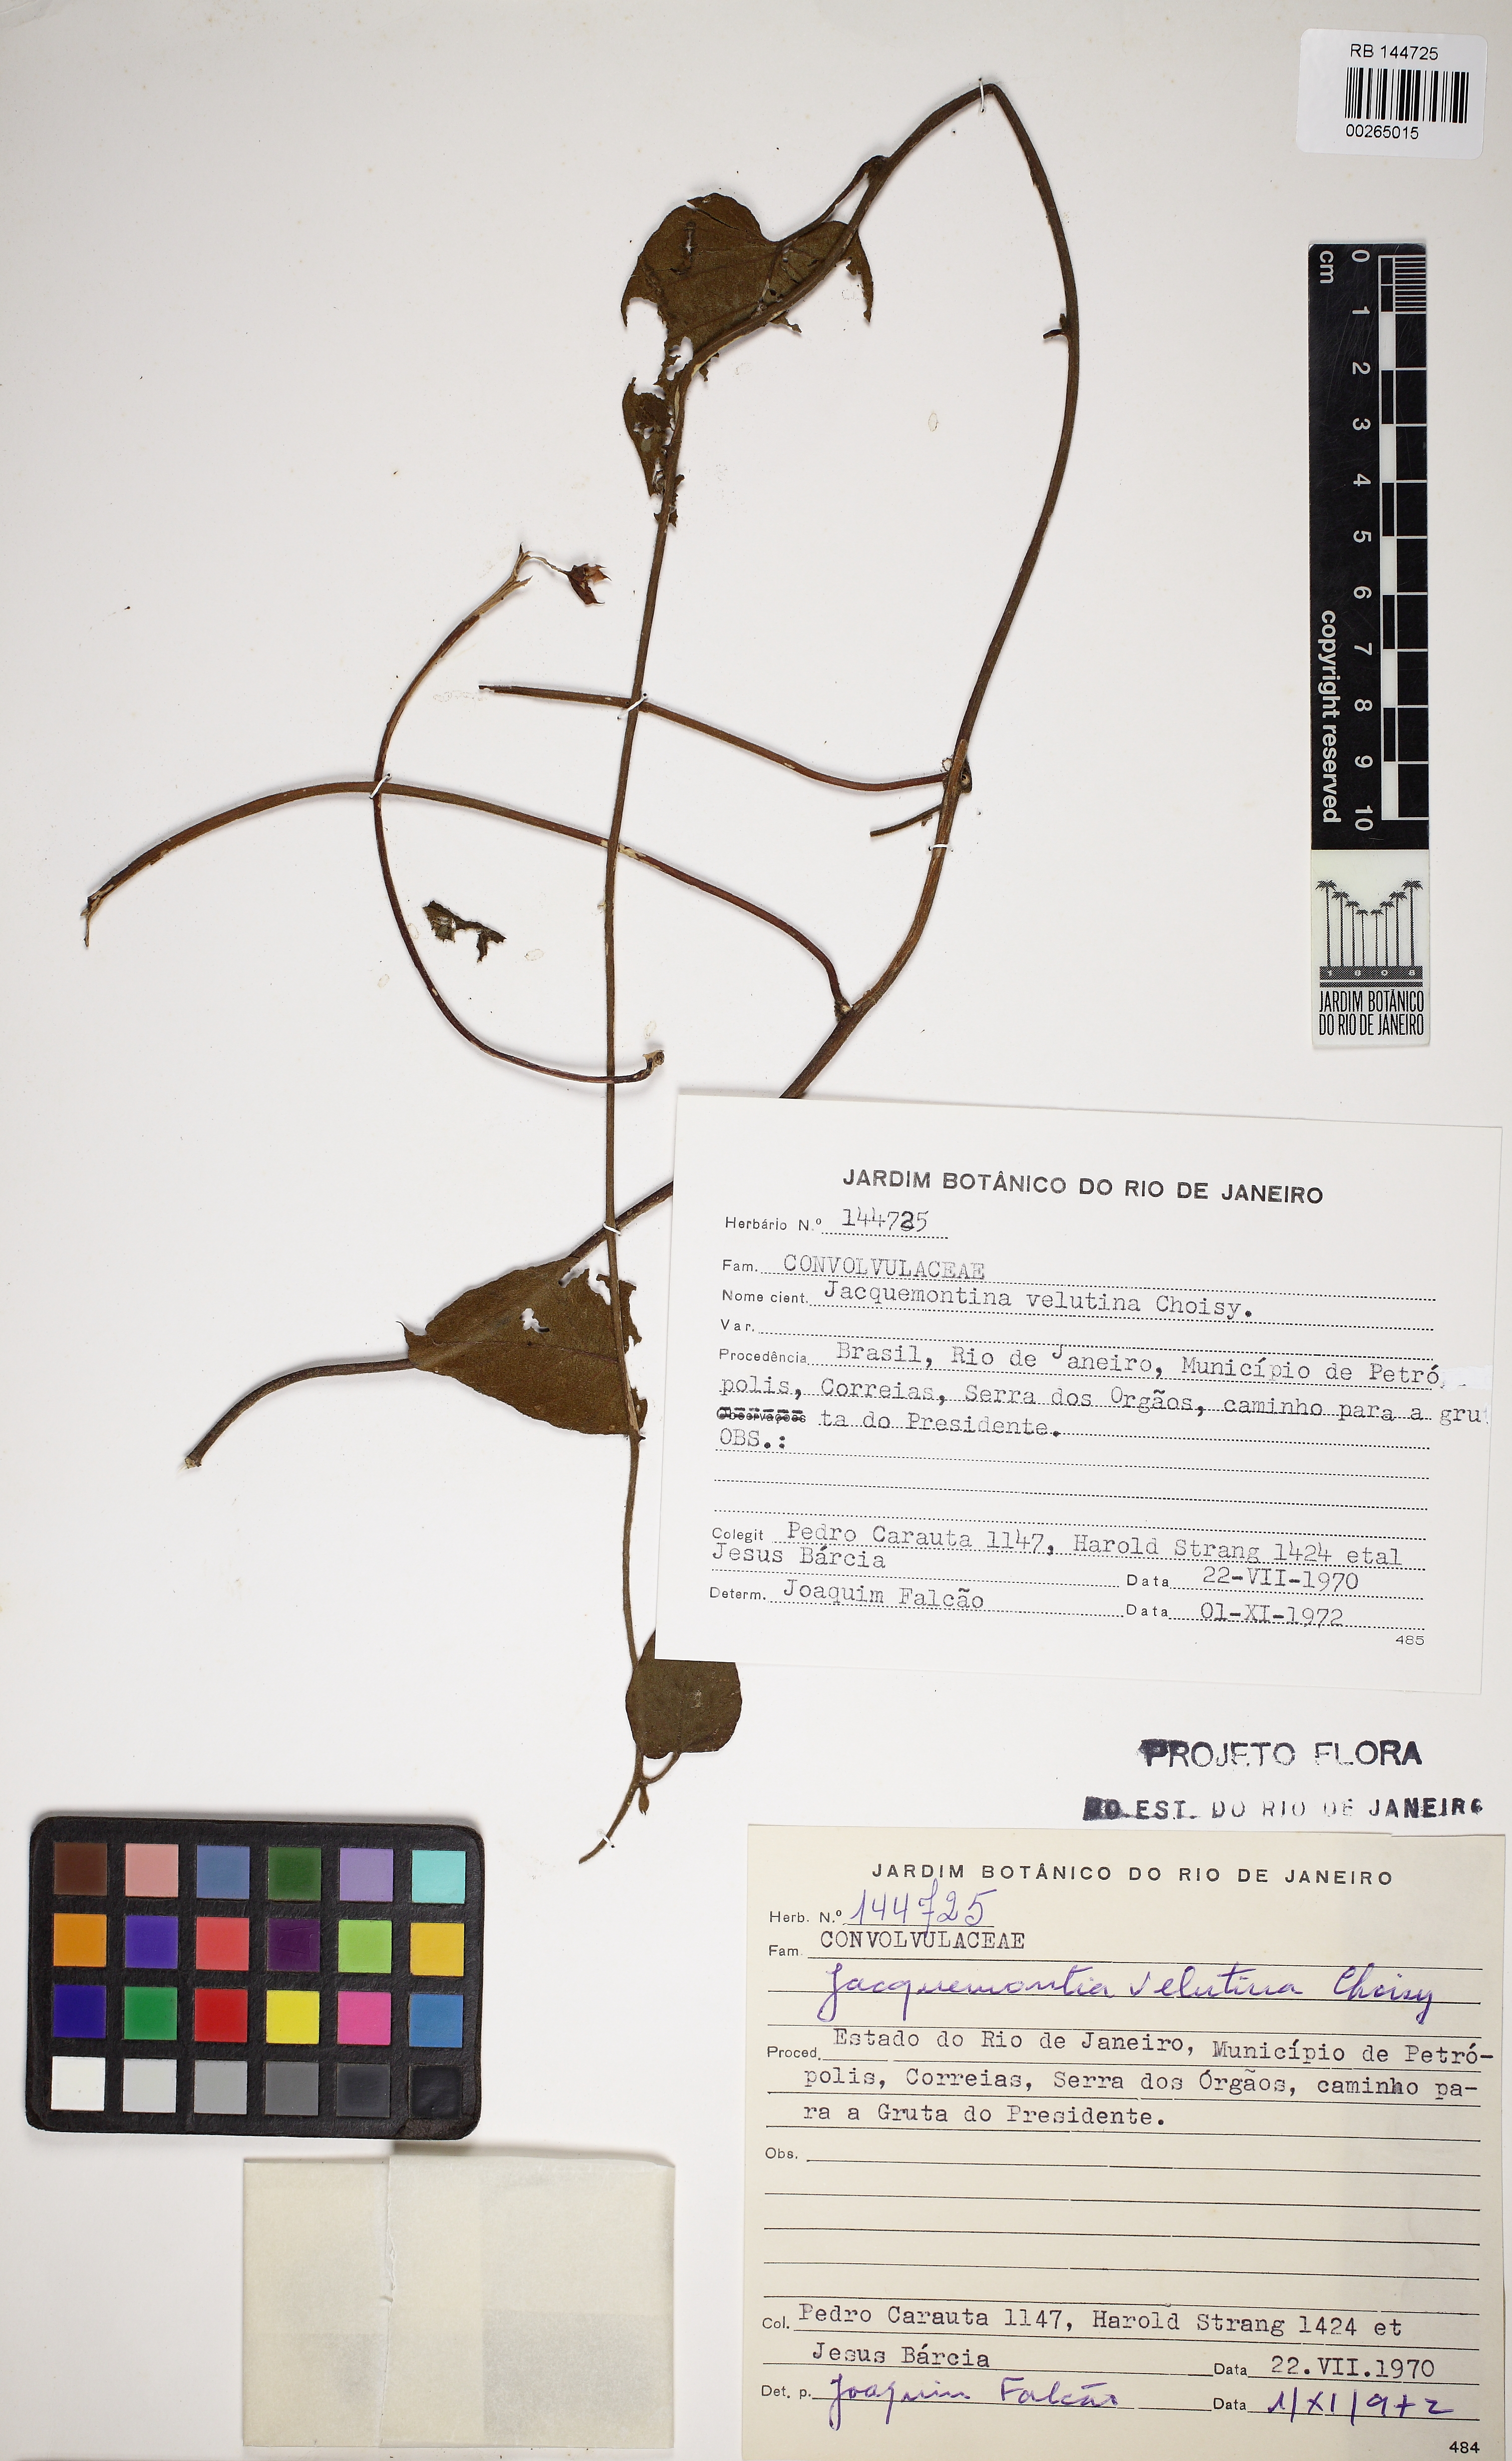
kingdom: Plantae
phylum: Tracheophyta
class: Magnoliopsida
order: Solanales
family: Convolvulaceae
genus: Jacquemontia
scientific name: Jacquemontia velutina
